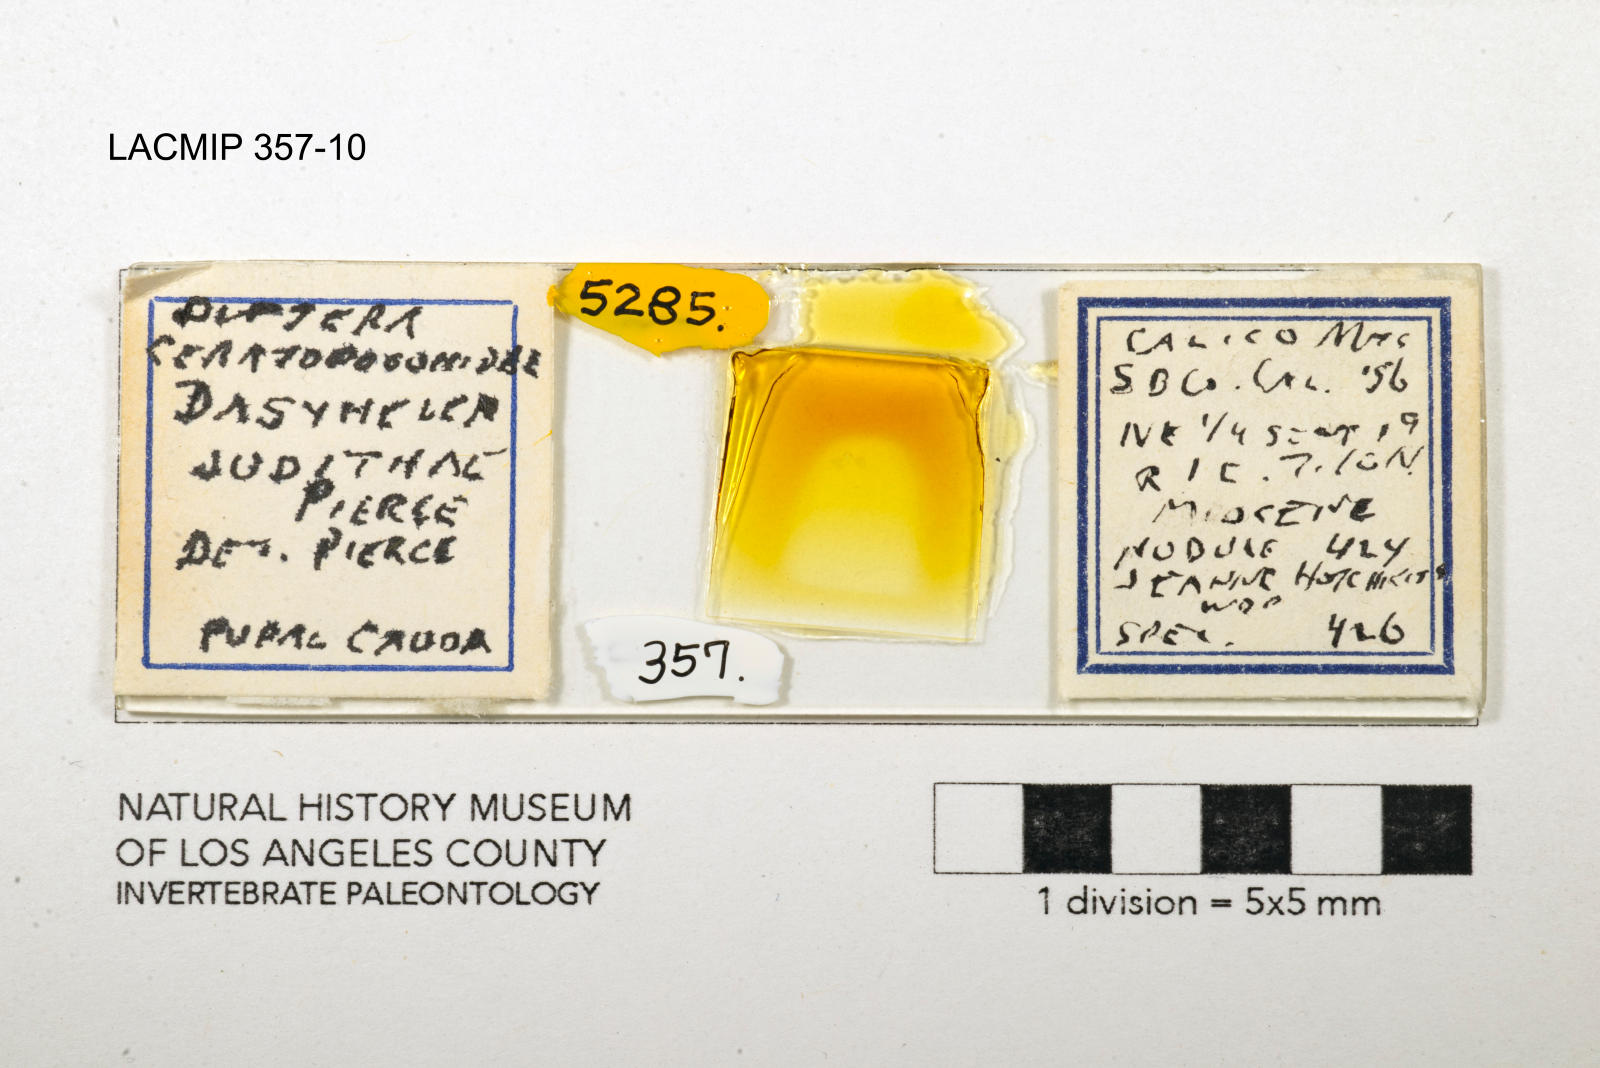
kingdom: Animalia
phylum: Arthropoda
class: Insecta
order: Diptera
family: Ceratopogonidae
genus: Dasyhelea
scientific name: Dasyhelea judithae
